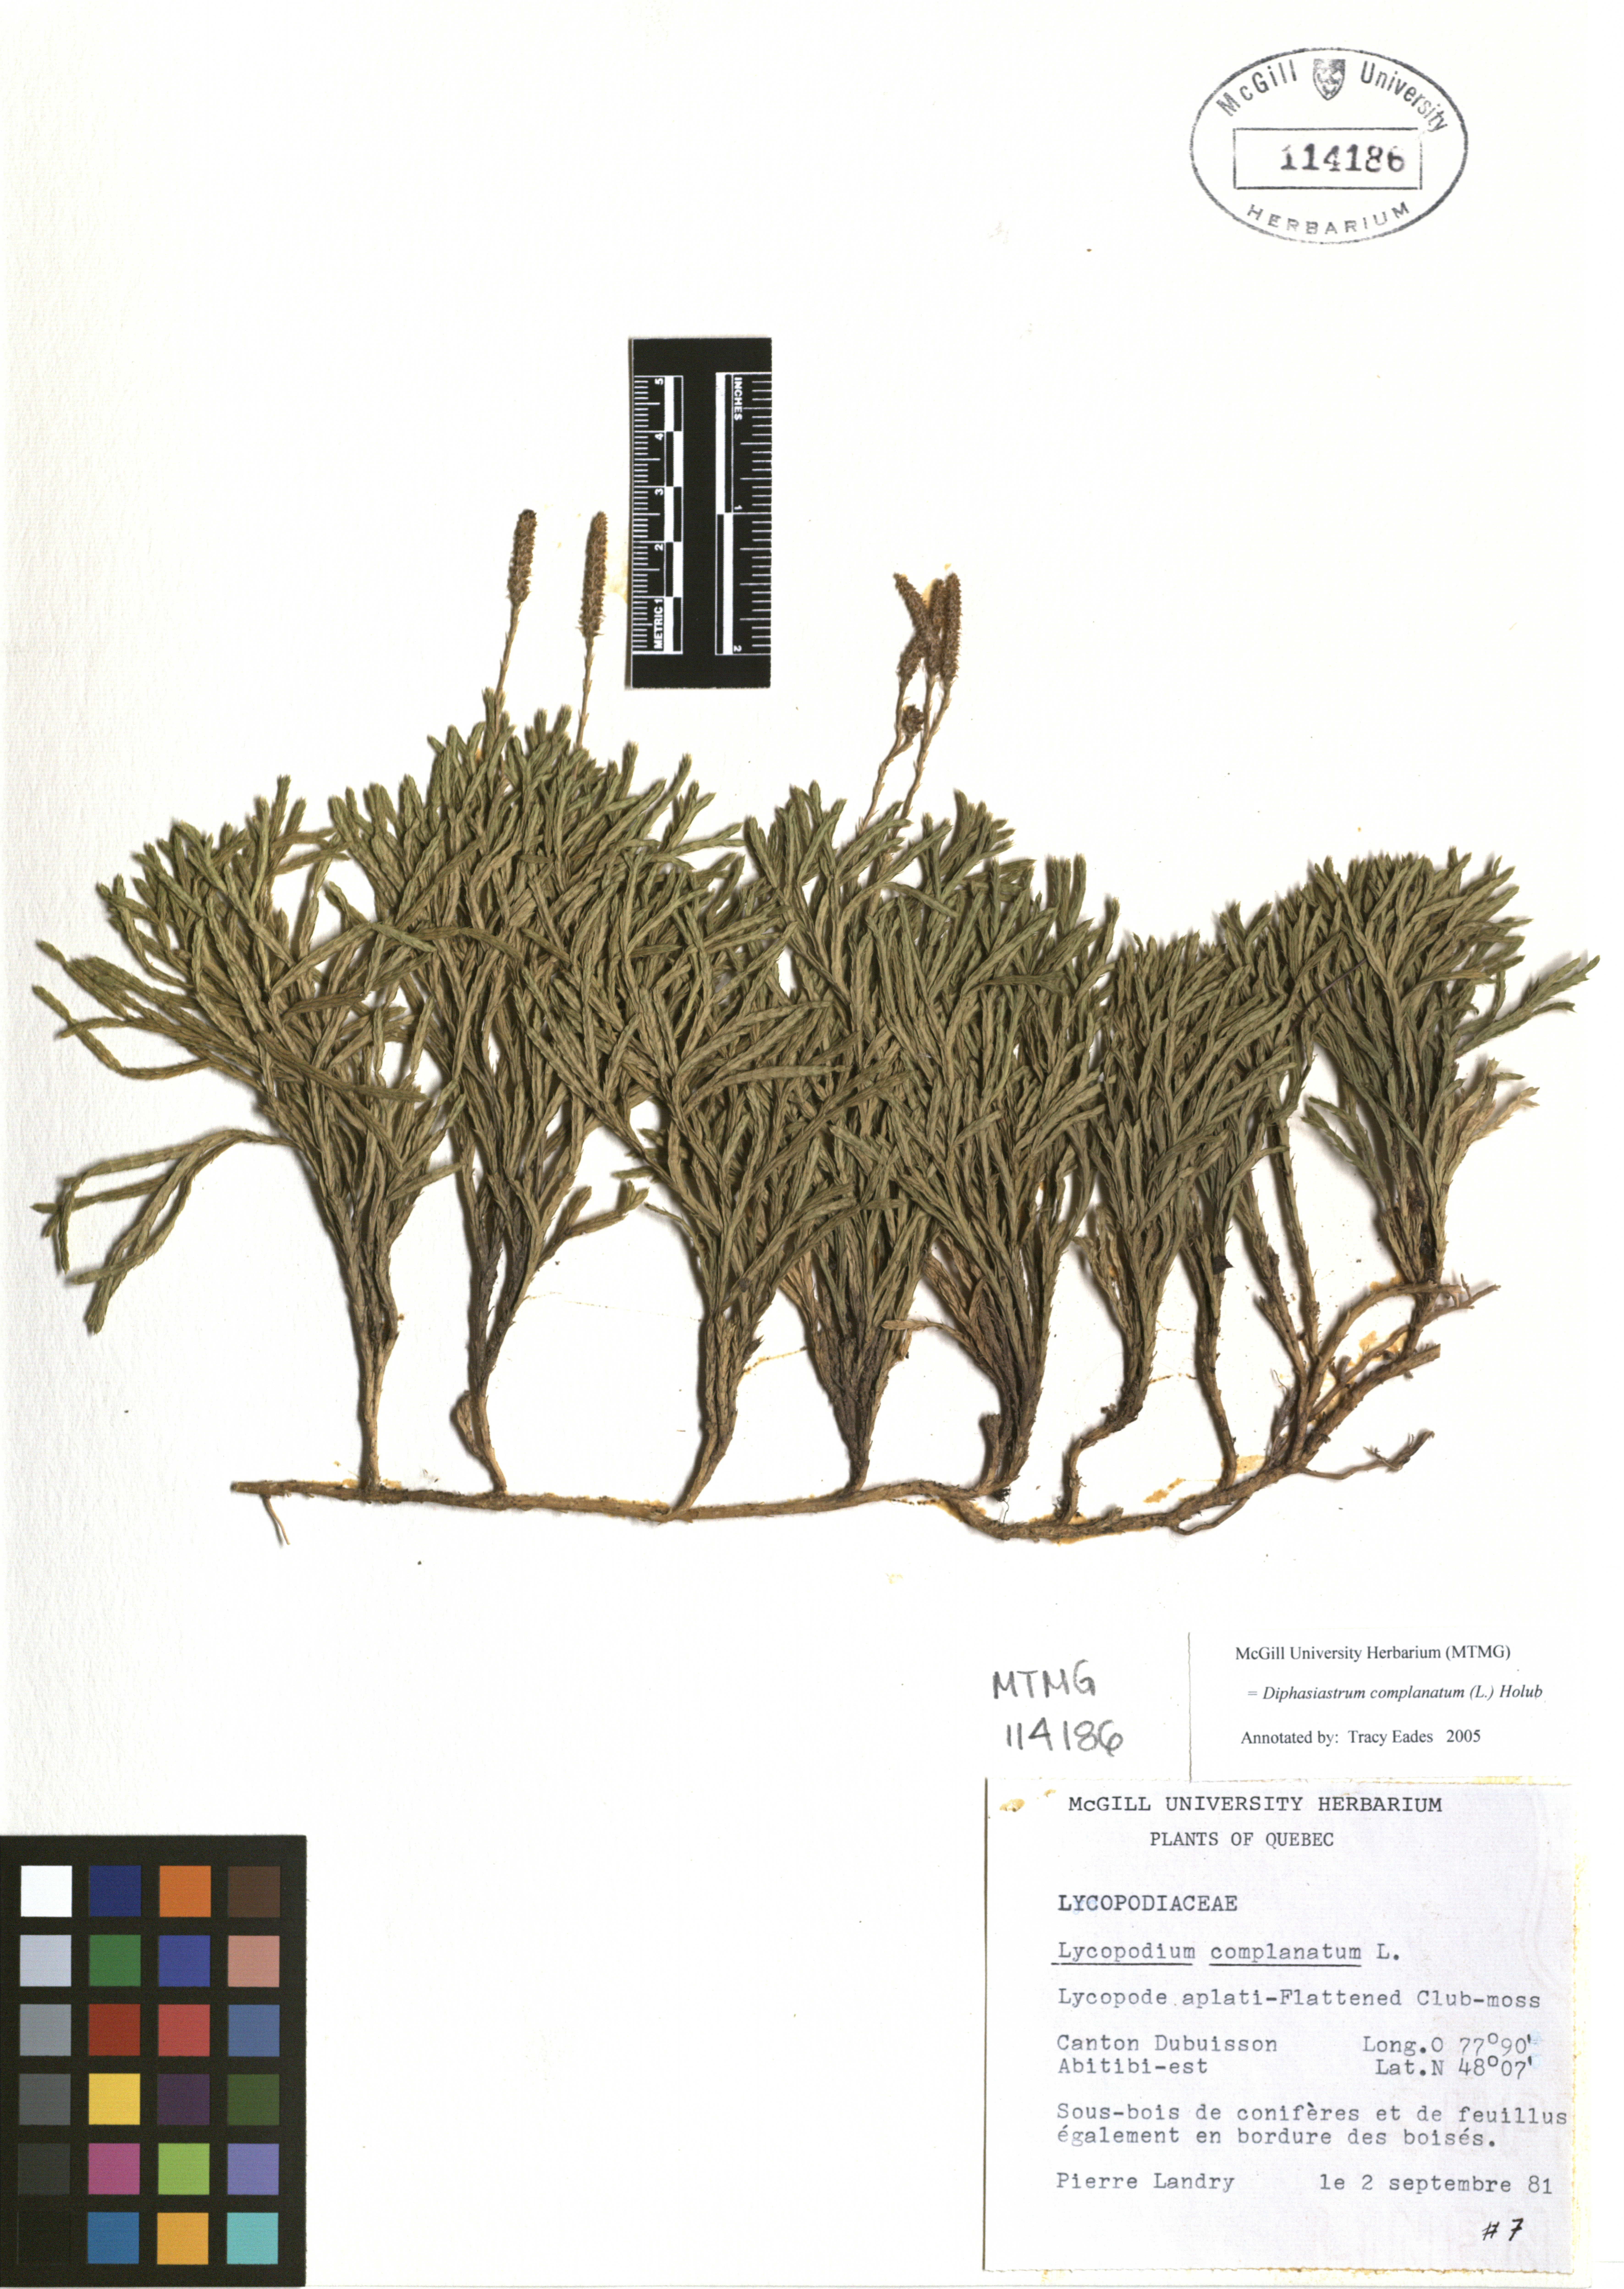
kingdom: Plantae
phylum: Tracheophyta
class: Lycopodiopsida
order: Lycopodiales
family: Lycopodiaceae
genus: Diphasiastrum
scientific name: Diphasiastrum complanatum
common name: Northern running-pine
